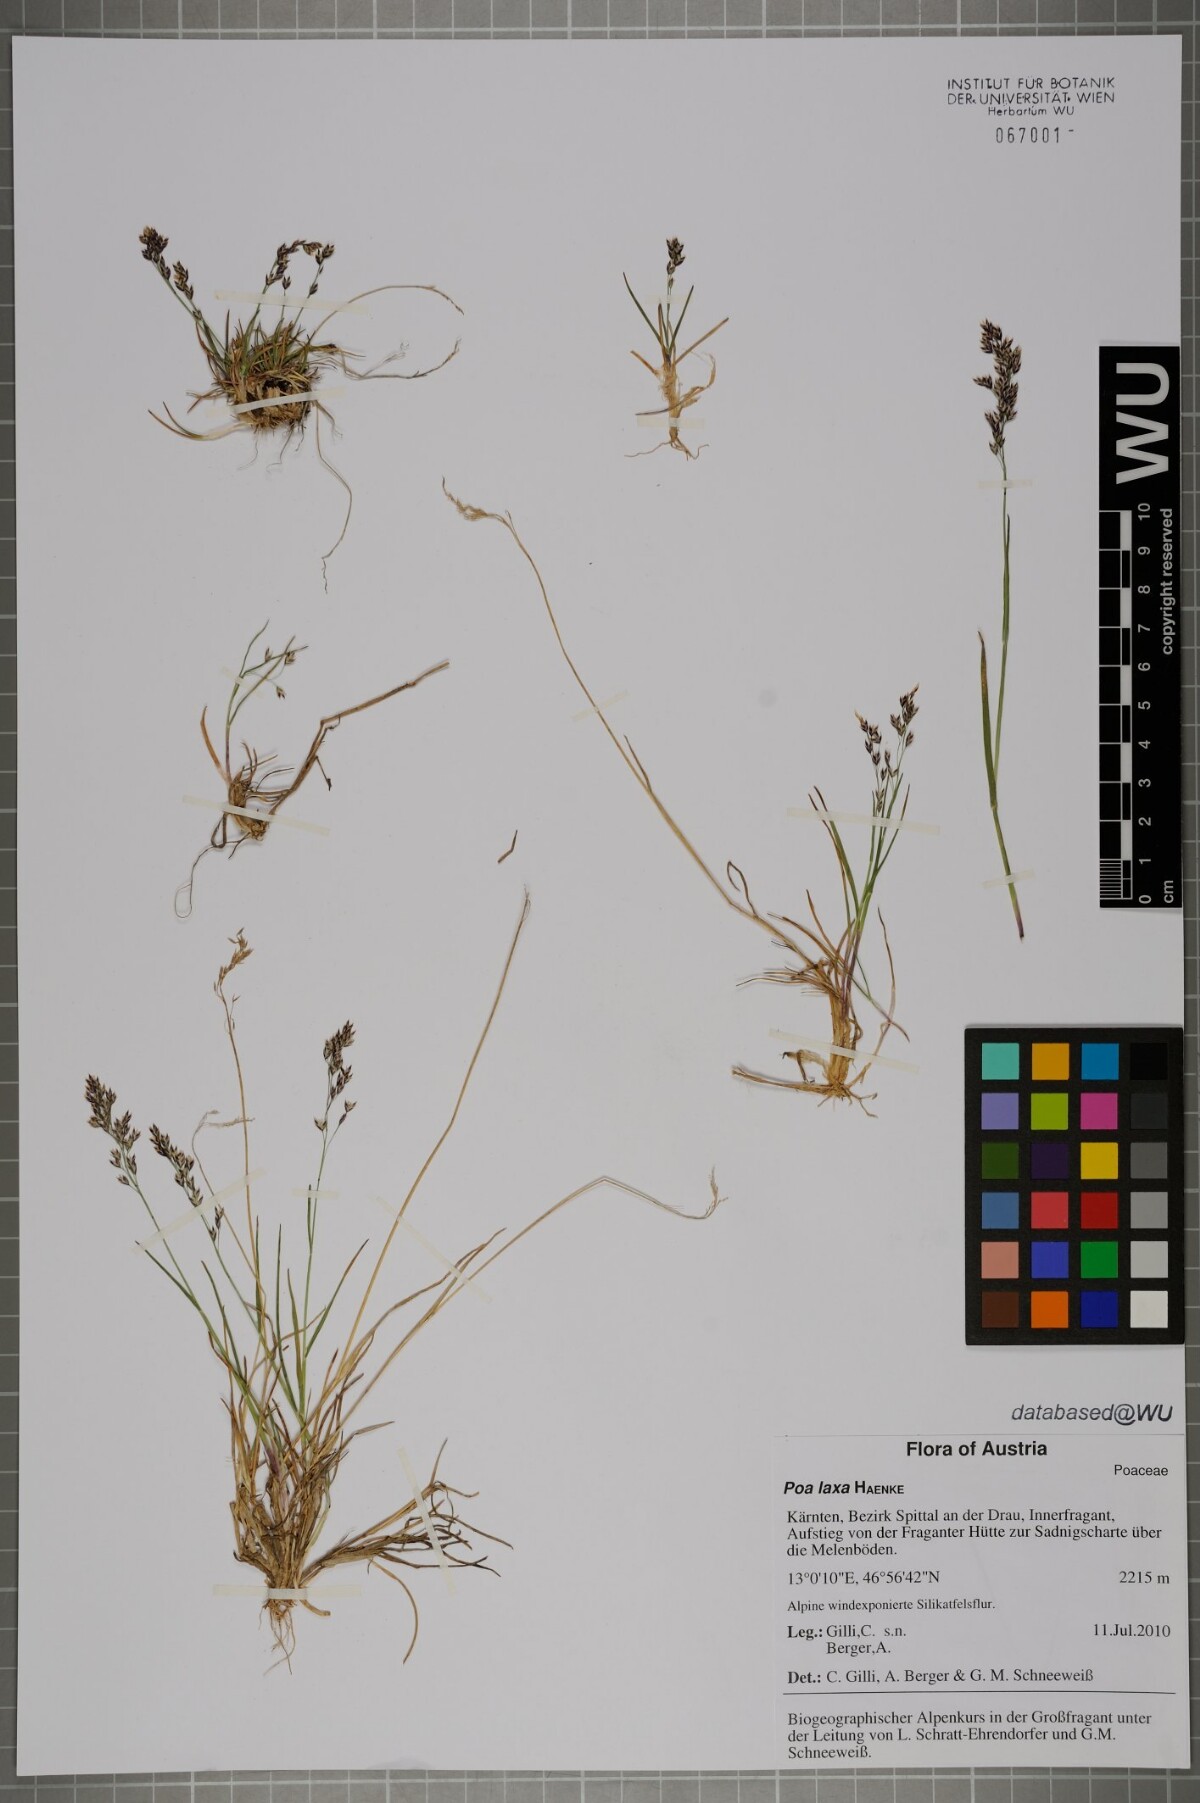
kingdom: Plantae
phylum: Tracheophyta
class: Liliopsida
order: Poales
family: Poaceae
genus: Poa
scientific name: Poa laxa
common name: Lax bluegrass
